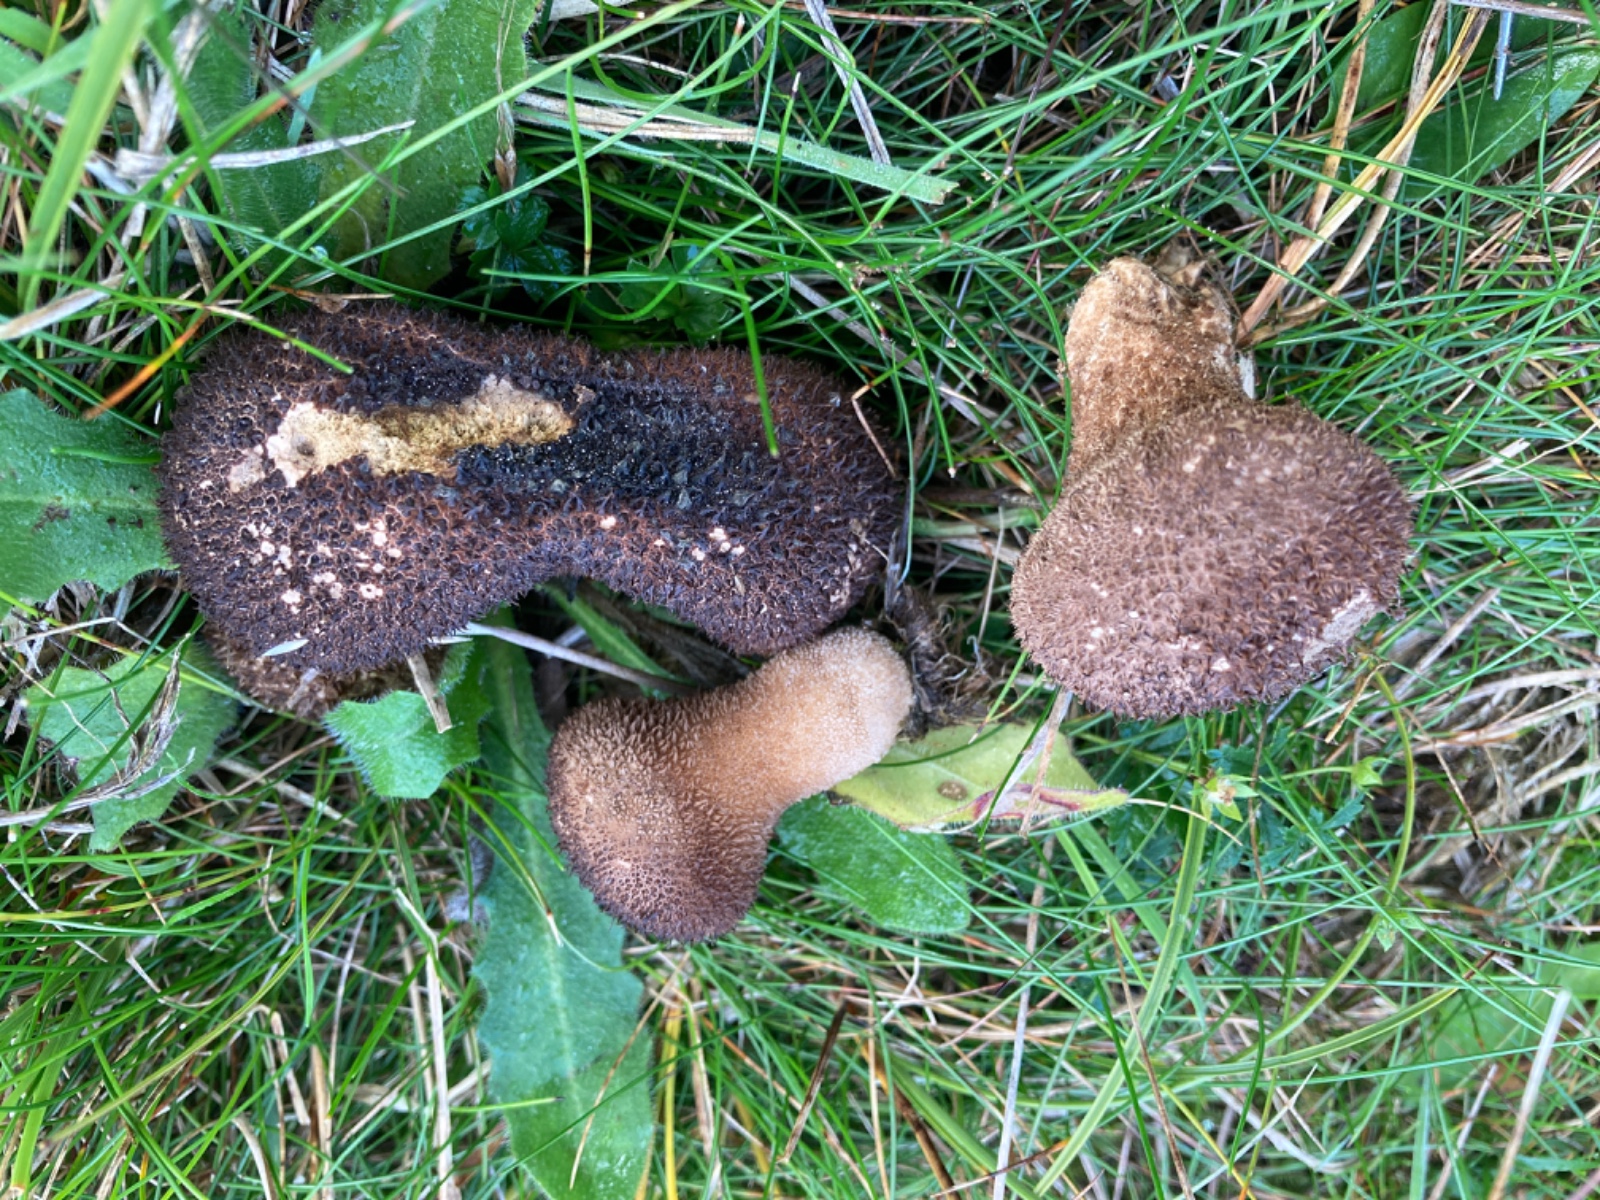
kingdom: Fungi
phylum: Basidiomycota
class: Agaricomycetes
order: Agaricales
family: Lycoperdaceae
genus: Lycoperdon
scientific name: Lycoperdon nigrescens
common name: sortagtig støvbold
